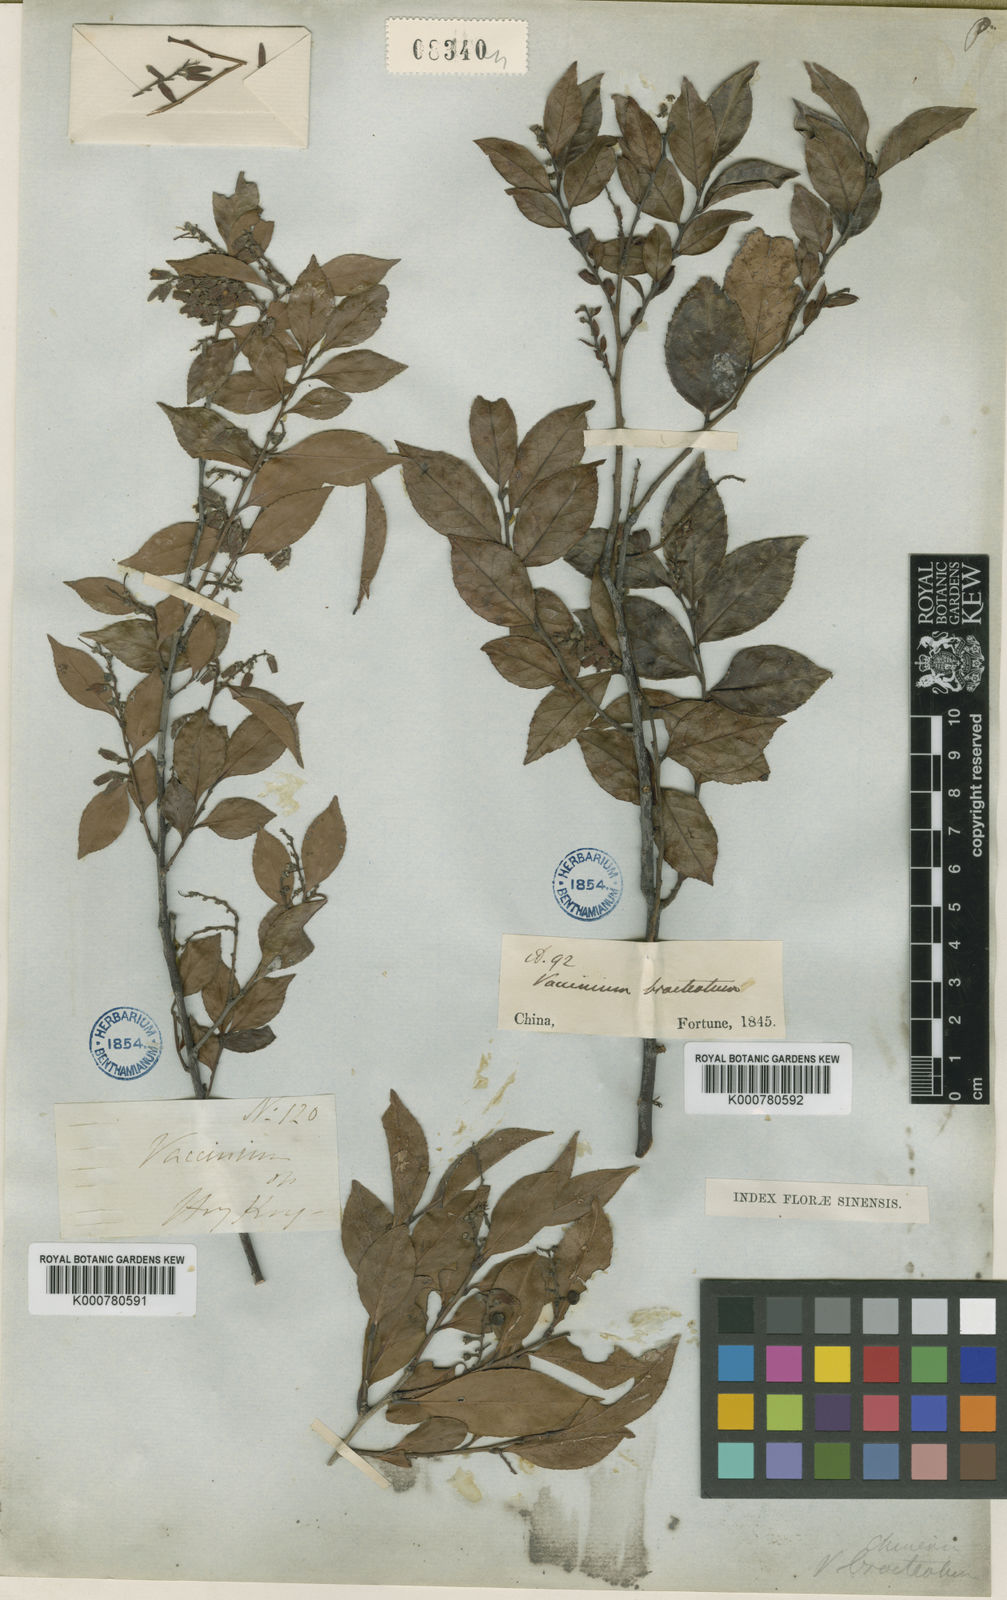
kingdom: Plantae
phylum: Tracheophyta
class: Magnoliopsida
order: Ericales
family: Ericaceae
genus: Vaccinium
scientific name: Vaccinium bracteatum
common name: Sea bilberry
